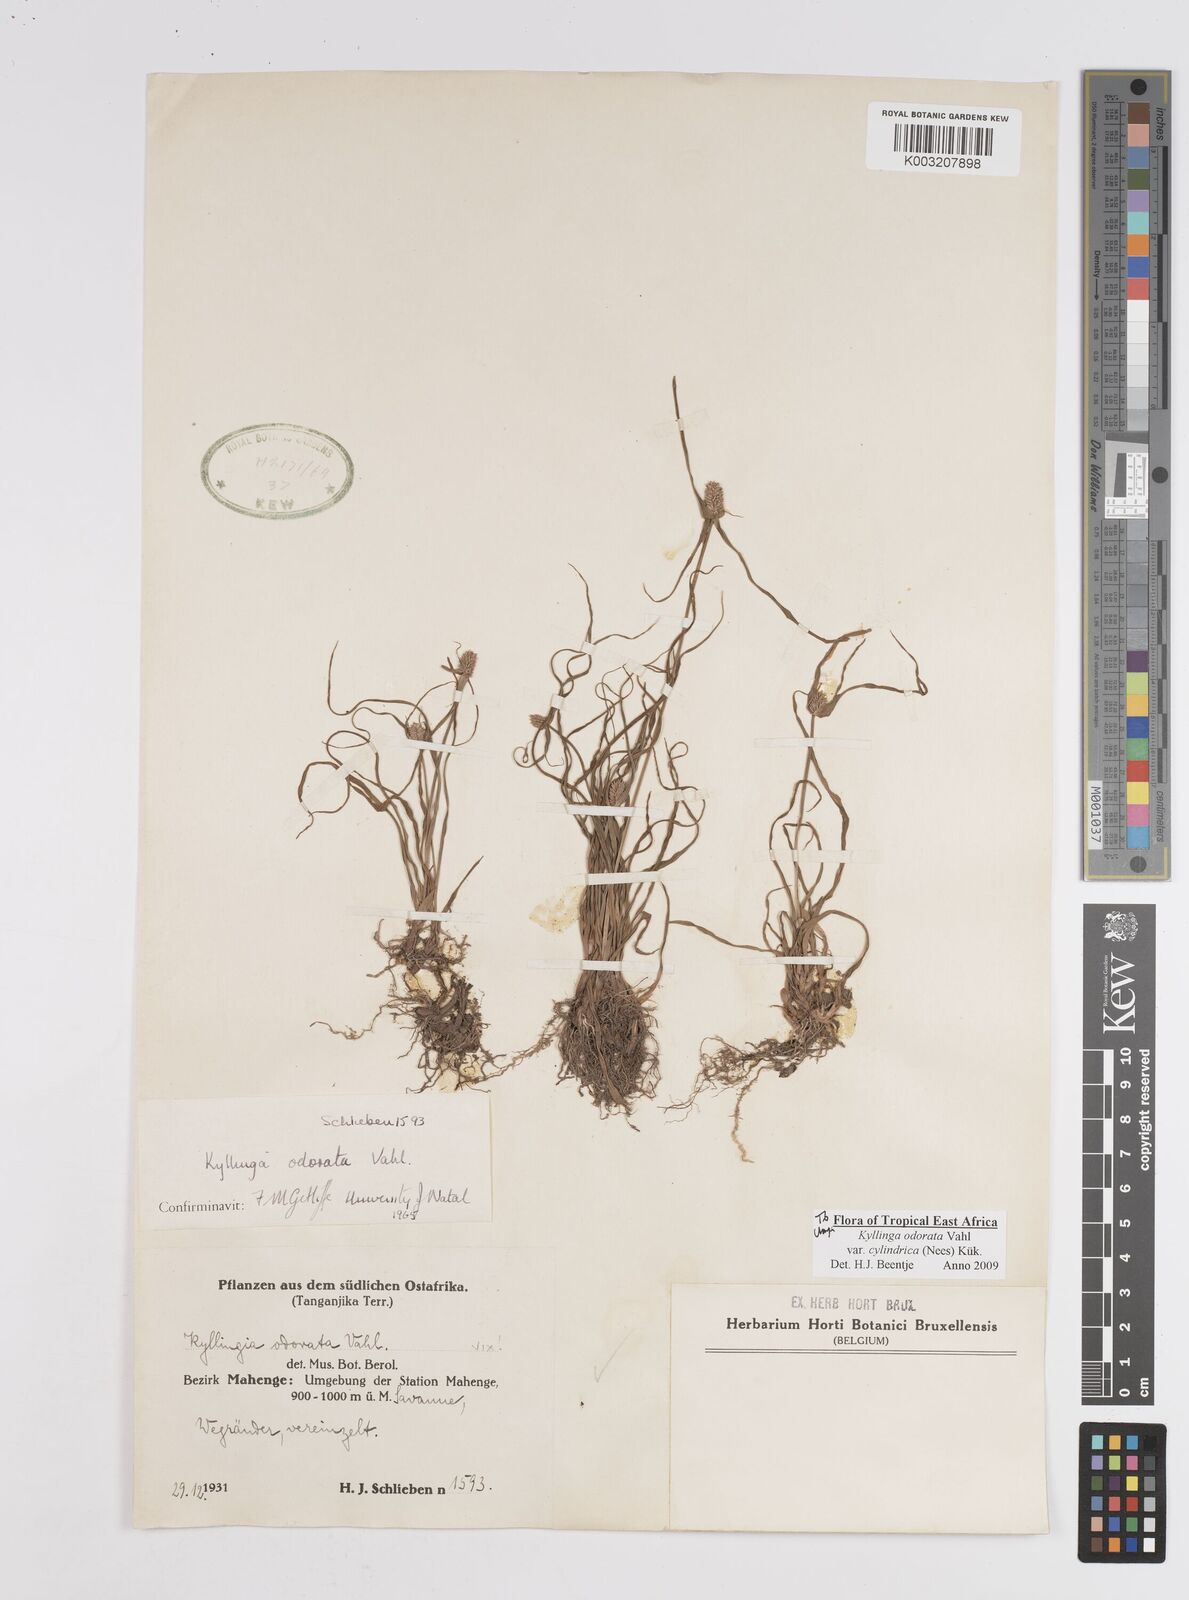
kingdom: Plantae
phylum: Tracheophyta
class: Liliopsida
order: Poales
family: Cyperaceae
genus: Cyperus
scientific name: Cyperus
